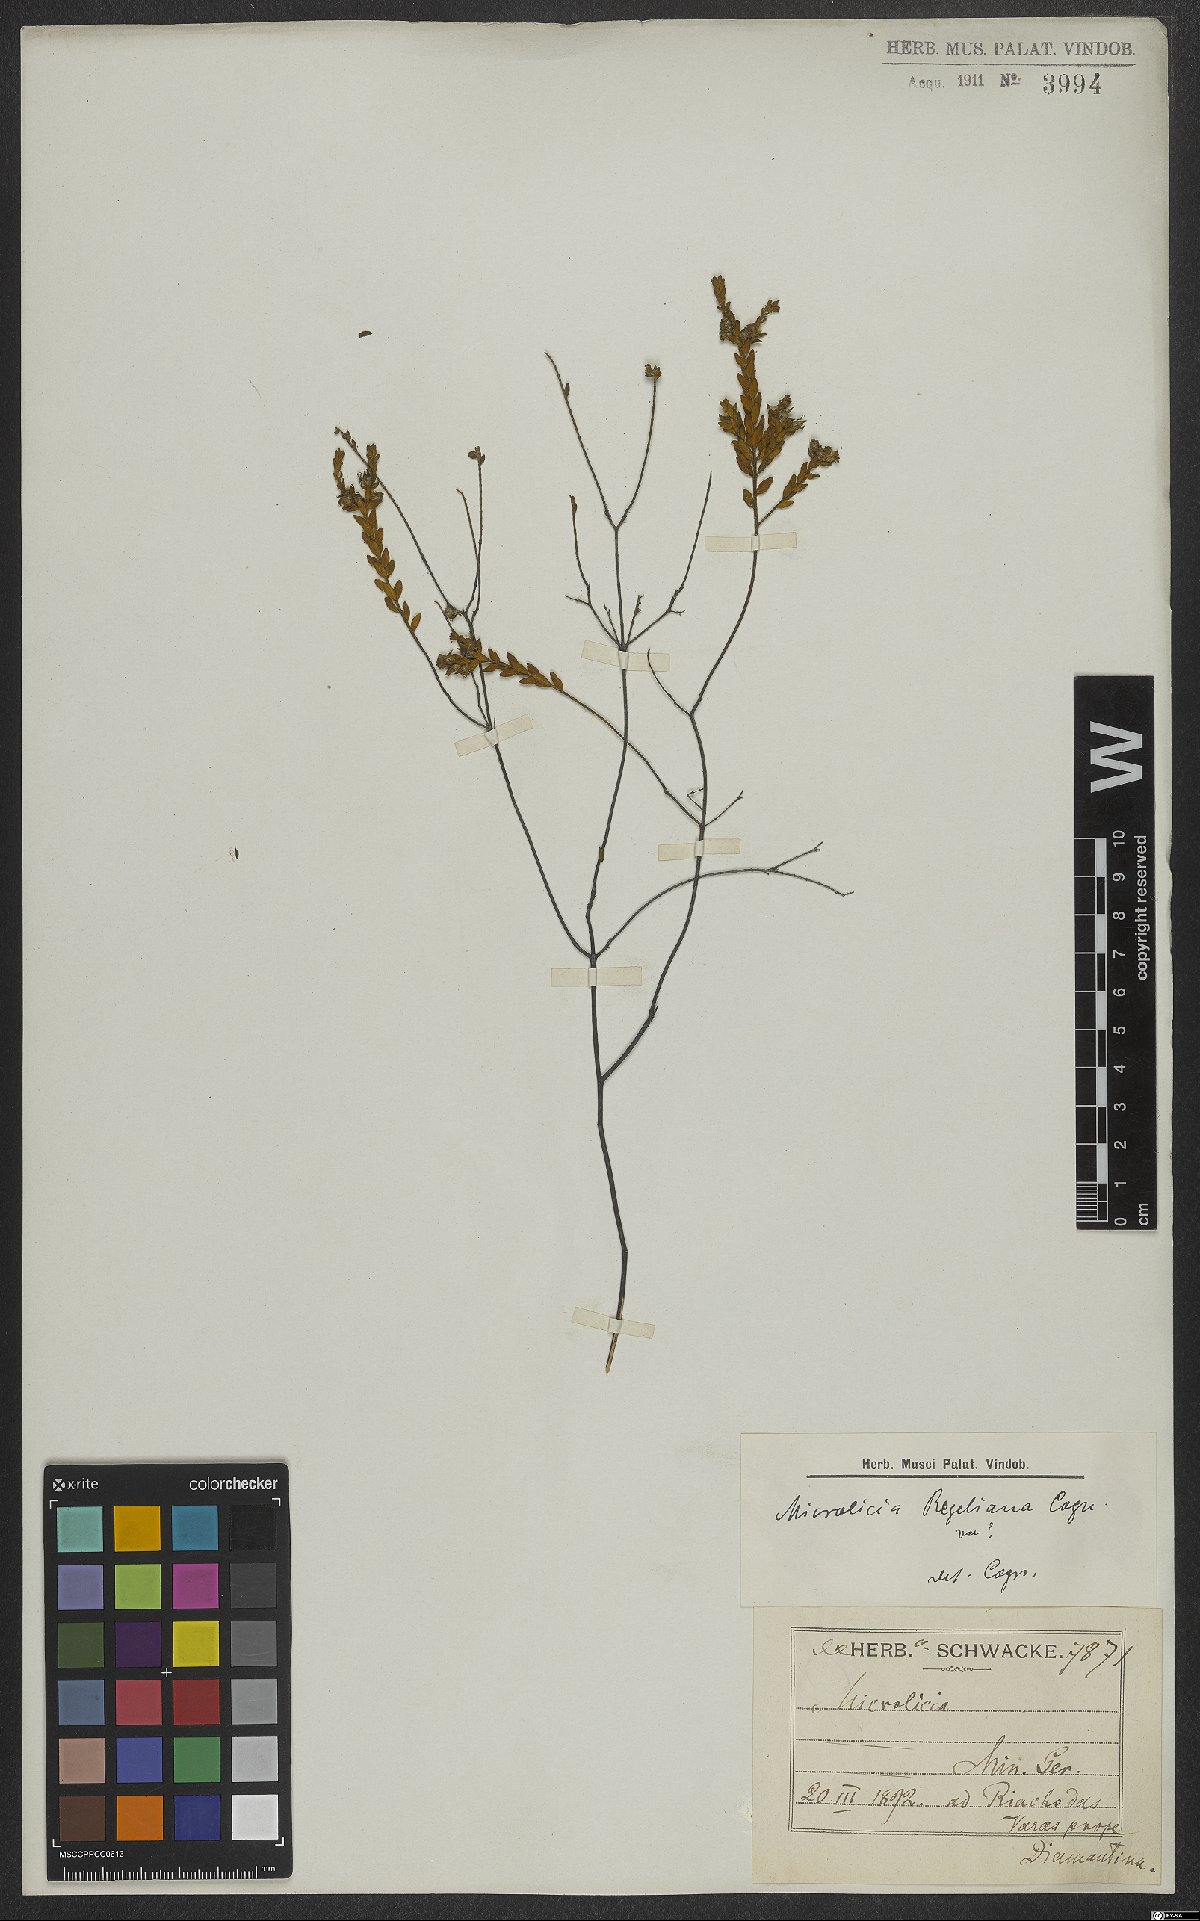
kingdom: Plantae
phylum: Tracheophyta
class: Magnoliopsida
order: Myrtales
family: Melastomataceae
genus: Microlicia
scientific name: Microlicia regeliana
